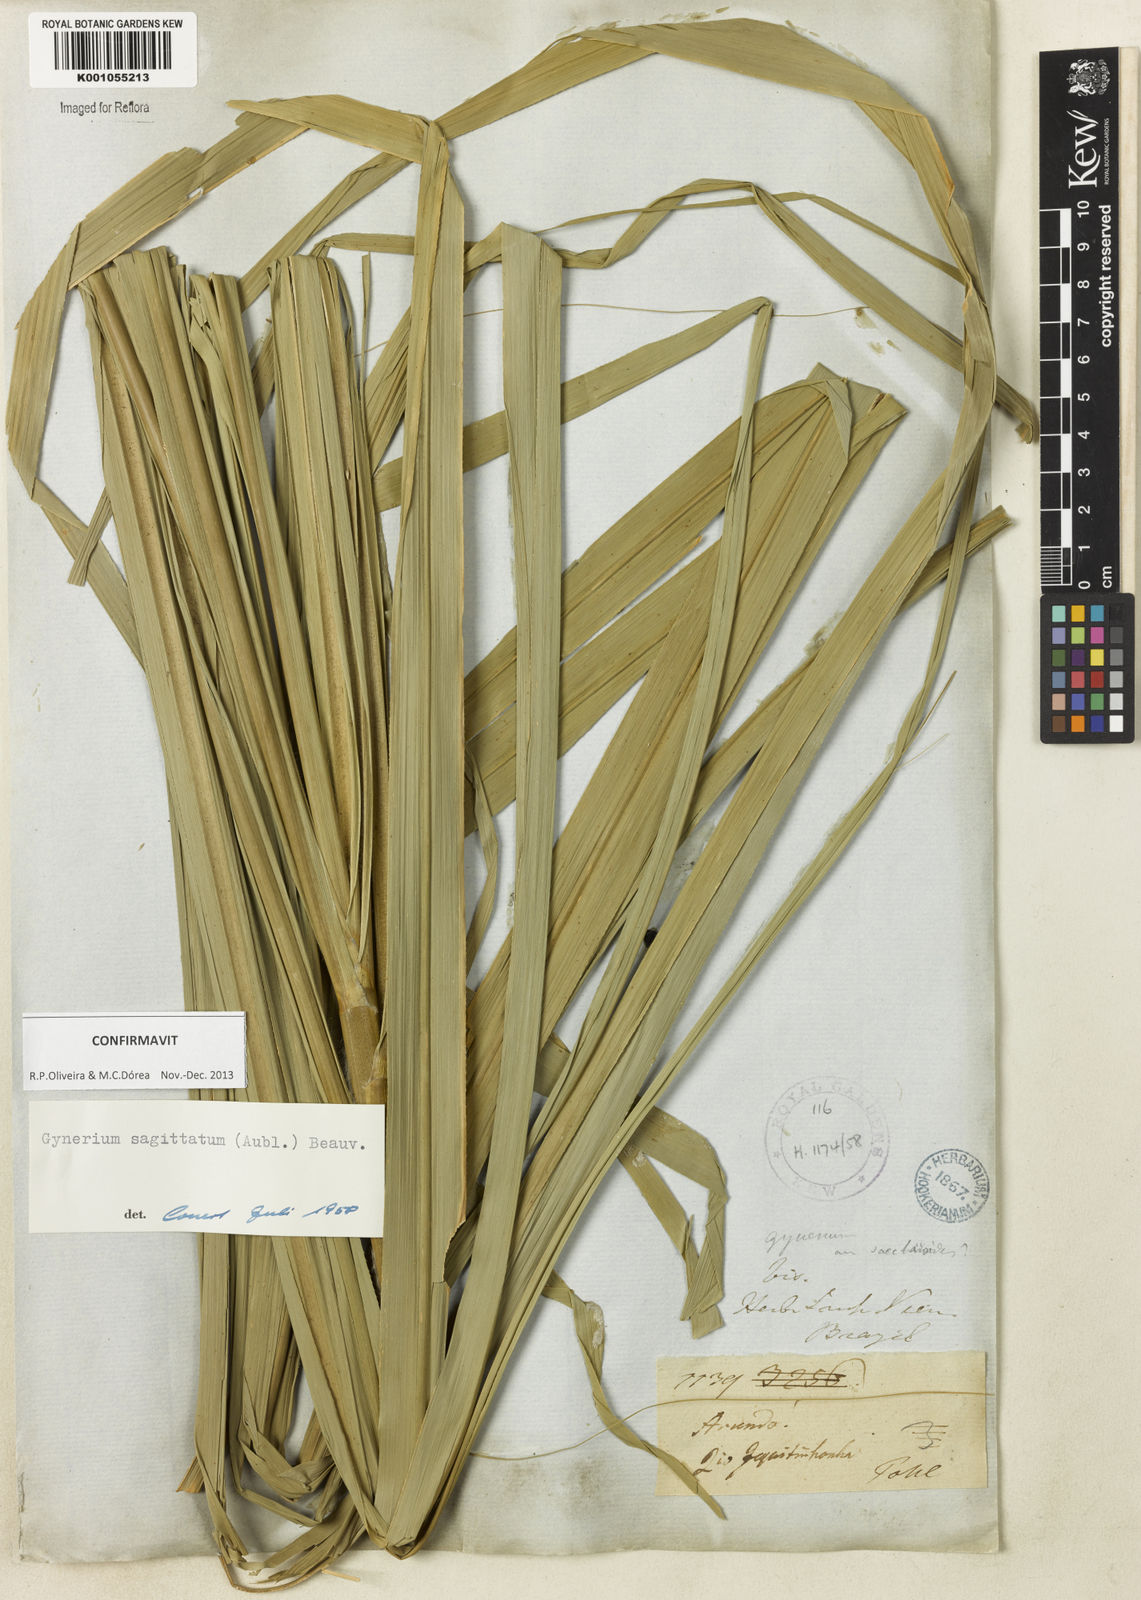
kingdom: Plantae
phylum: Tracheophyta
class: Liliopsida
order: Poales
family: Poaceae
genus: Gynerium
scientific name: Gynerium sagittatum
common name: Wild cane
